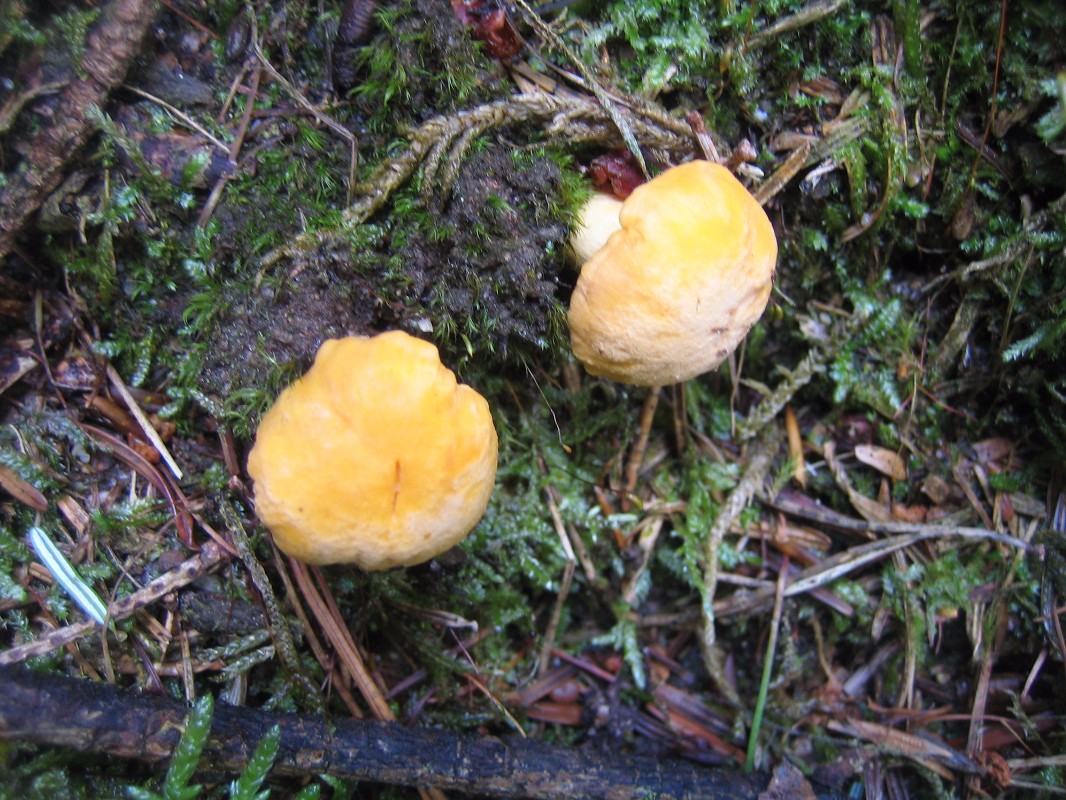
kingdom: Fungi
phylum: Basidiomycota
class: Agaricomycetes
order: Cantharellales
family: Hydnaceae
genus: Cantharellus
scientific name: Cantharellus cibarius
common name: almindelig kantarel
